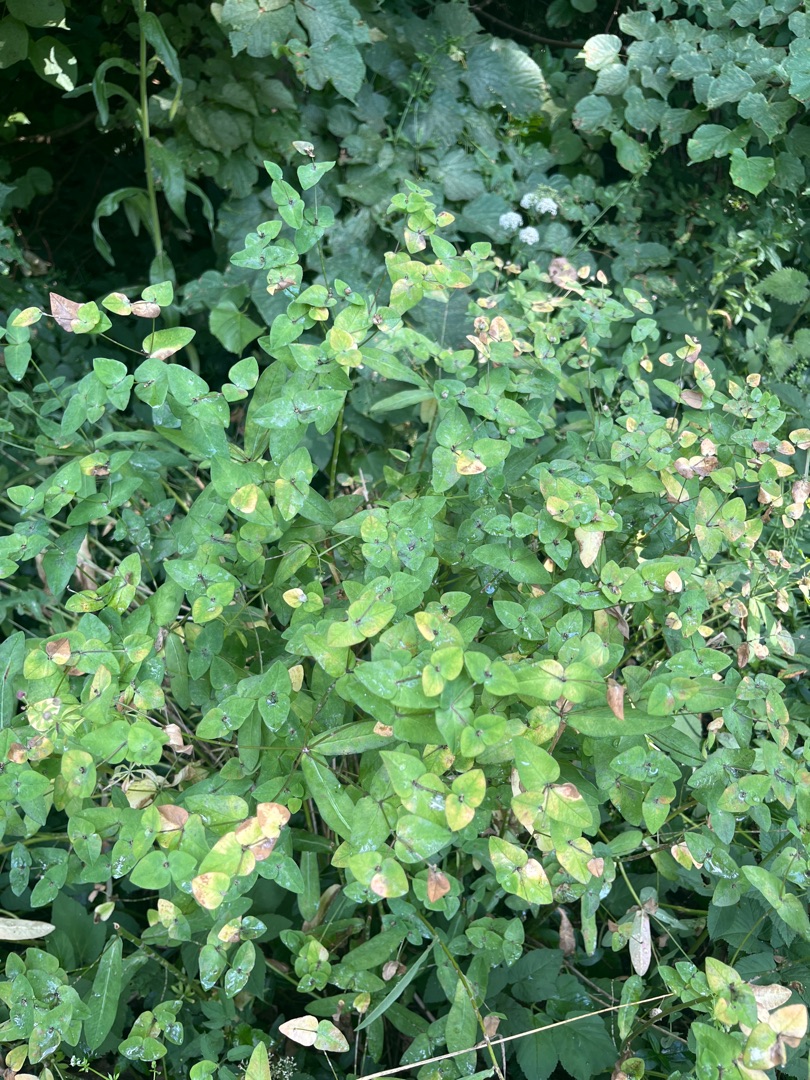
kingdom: Plantae
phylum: Tracheophyta
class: Magnoliopsida
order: Malpighiales
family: Euphorbiaceae
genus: Euphorbia
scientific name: Euphorbia dulcis
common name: Knold-vortemælk
